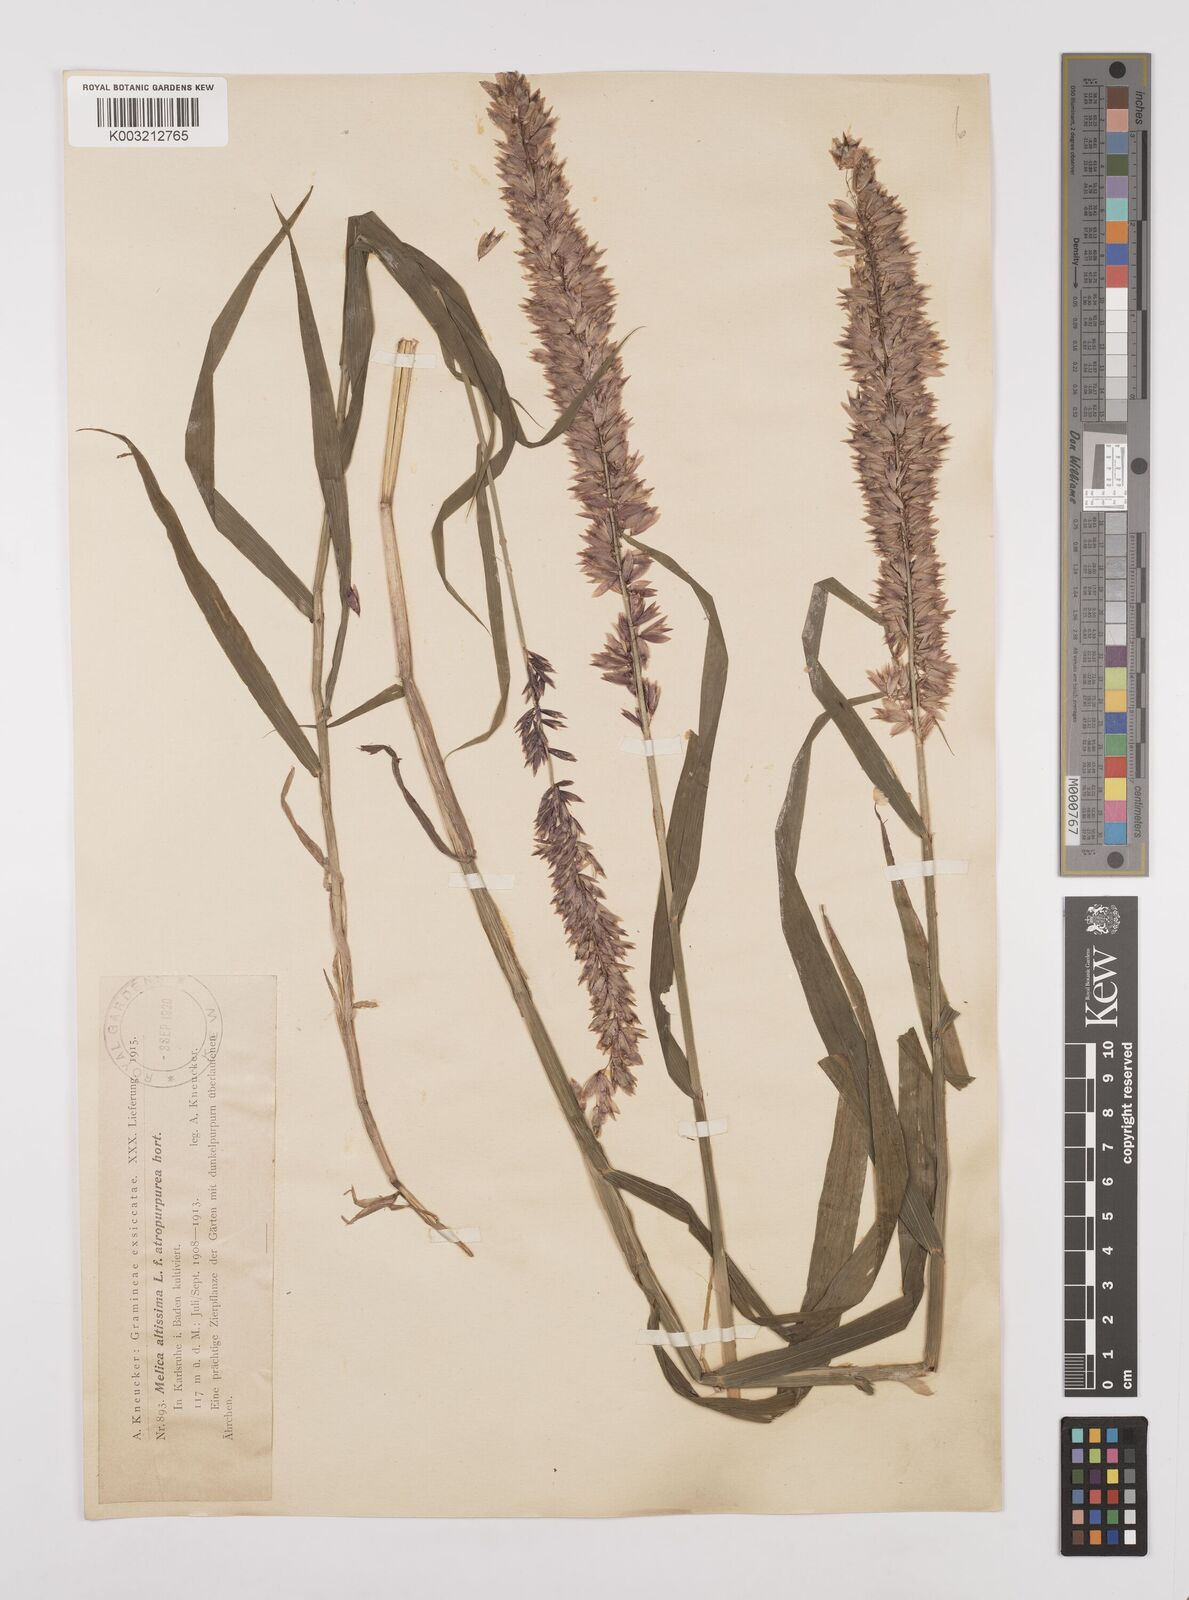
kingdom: Plantae
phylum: Tracheophyta
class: Liliopsida
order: Poales
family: Poaceae
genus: Melica
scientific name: Melica altissima
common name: Siberian melicgrass
